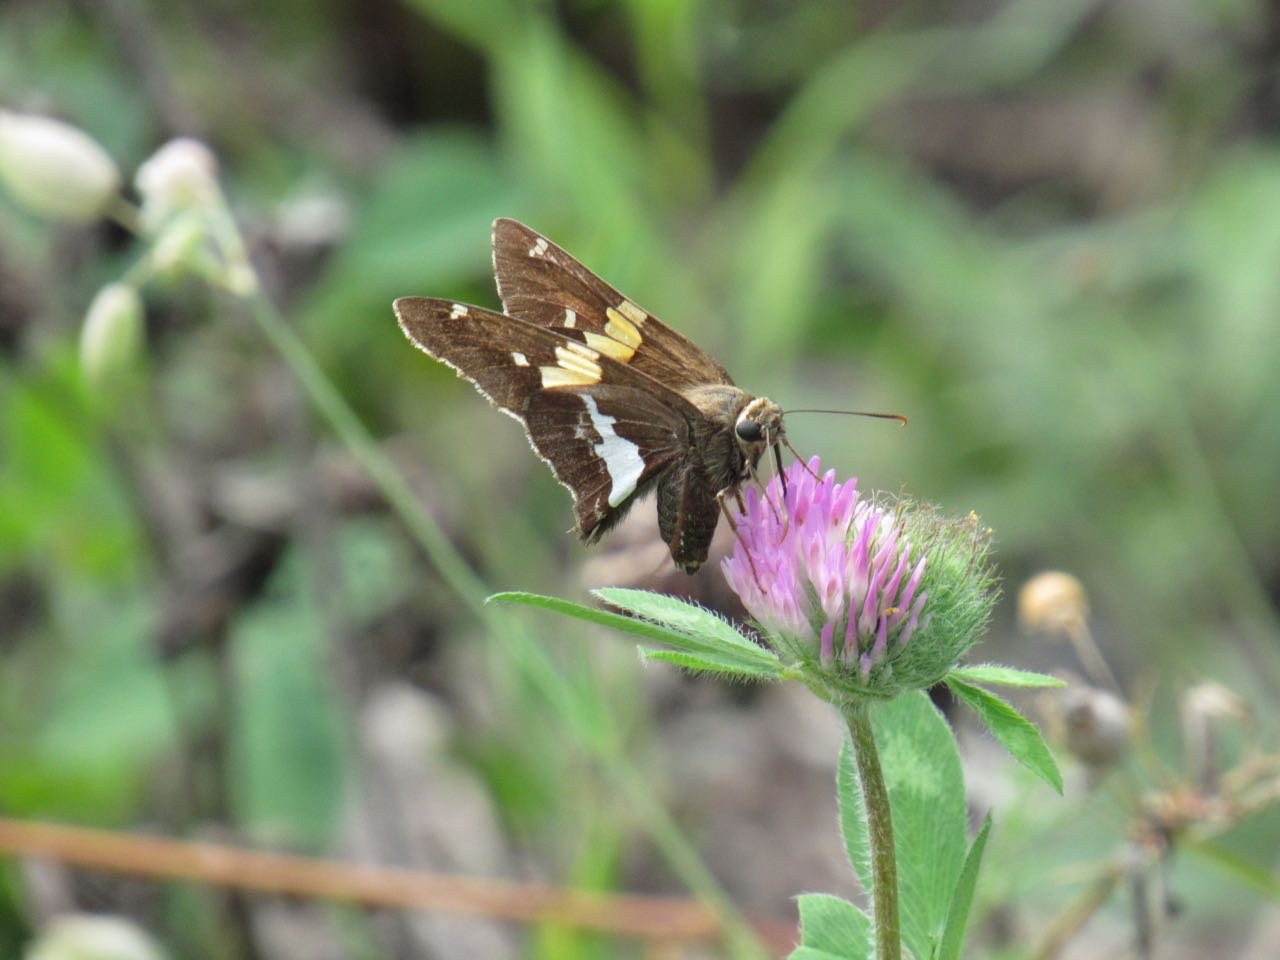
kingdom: Animalia
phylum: Arthropoda
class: Insecta
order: Lepidoptera
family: Hesperiidae
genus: Epargyreus
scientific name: Epargyreus clarus
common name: Silver-spotted Skipper
